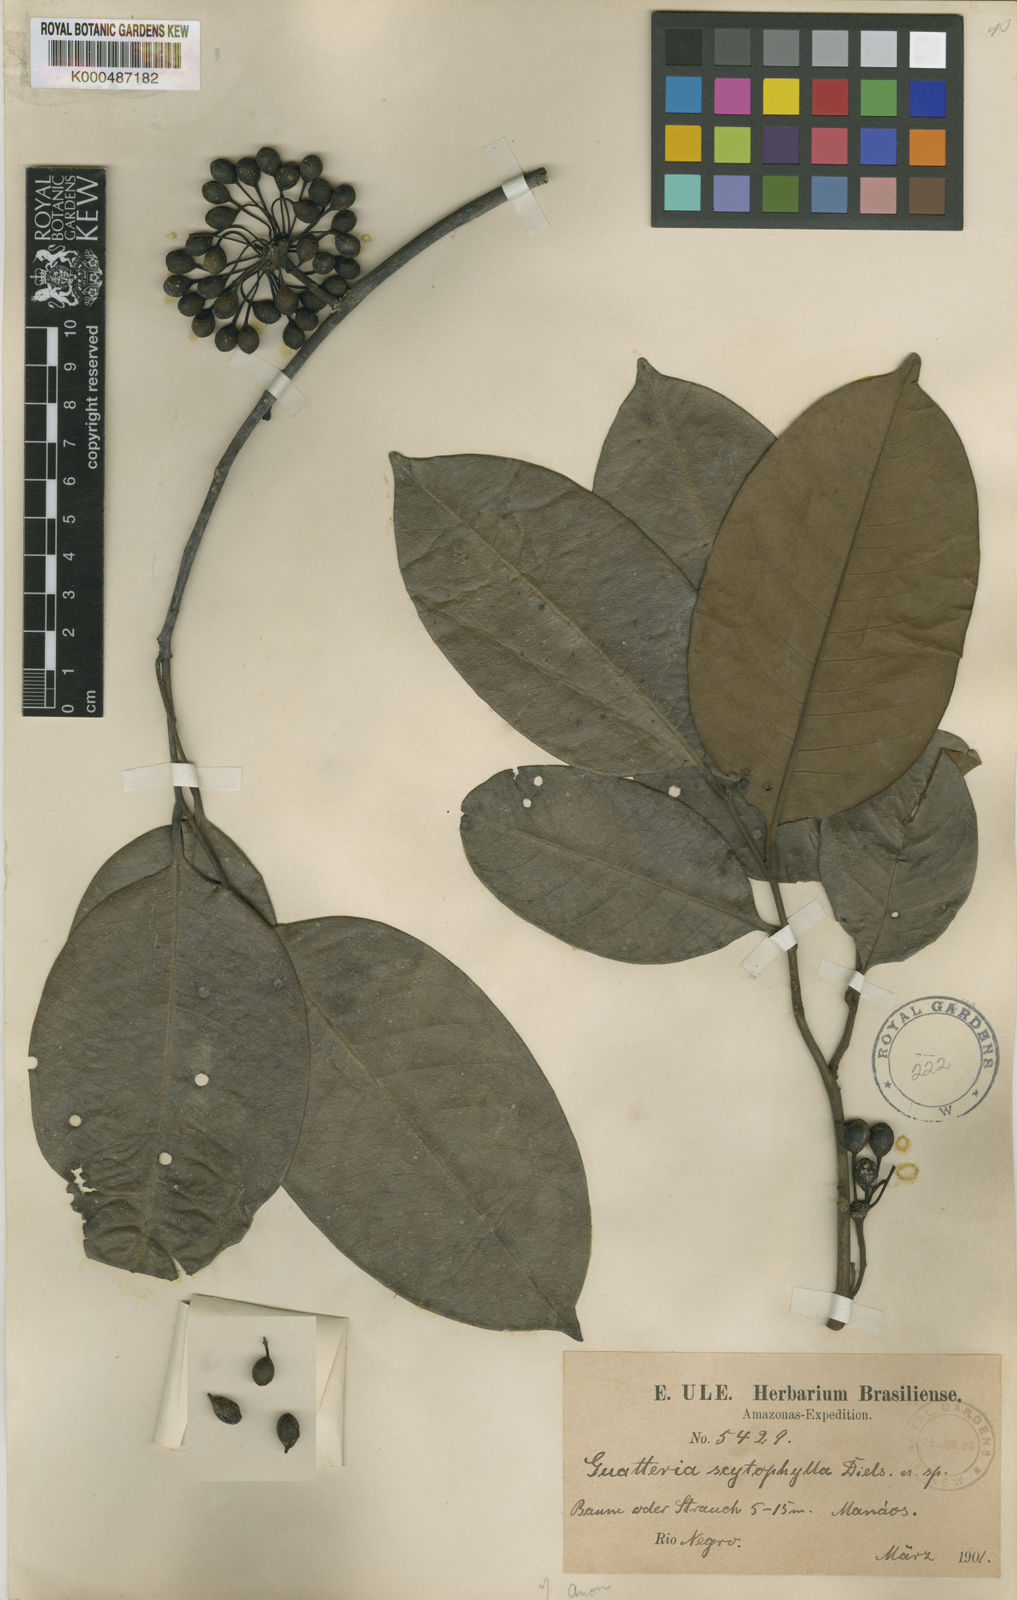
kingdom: Plantae
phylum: Tracheophyta
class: Magnoliopsida
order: Magnoliales
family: Annonaceae
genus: Guatteria
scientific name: Guatteria scytophylla
